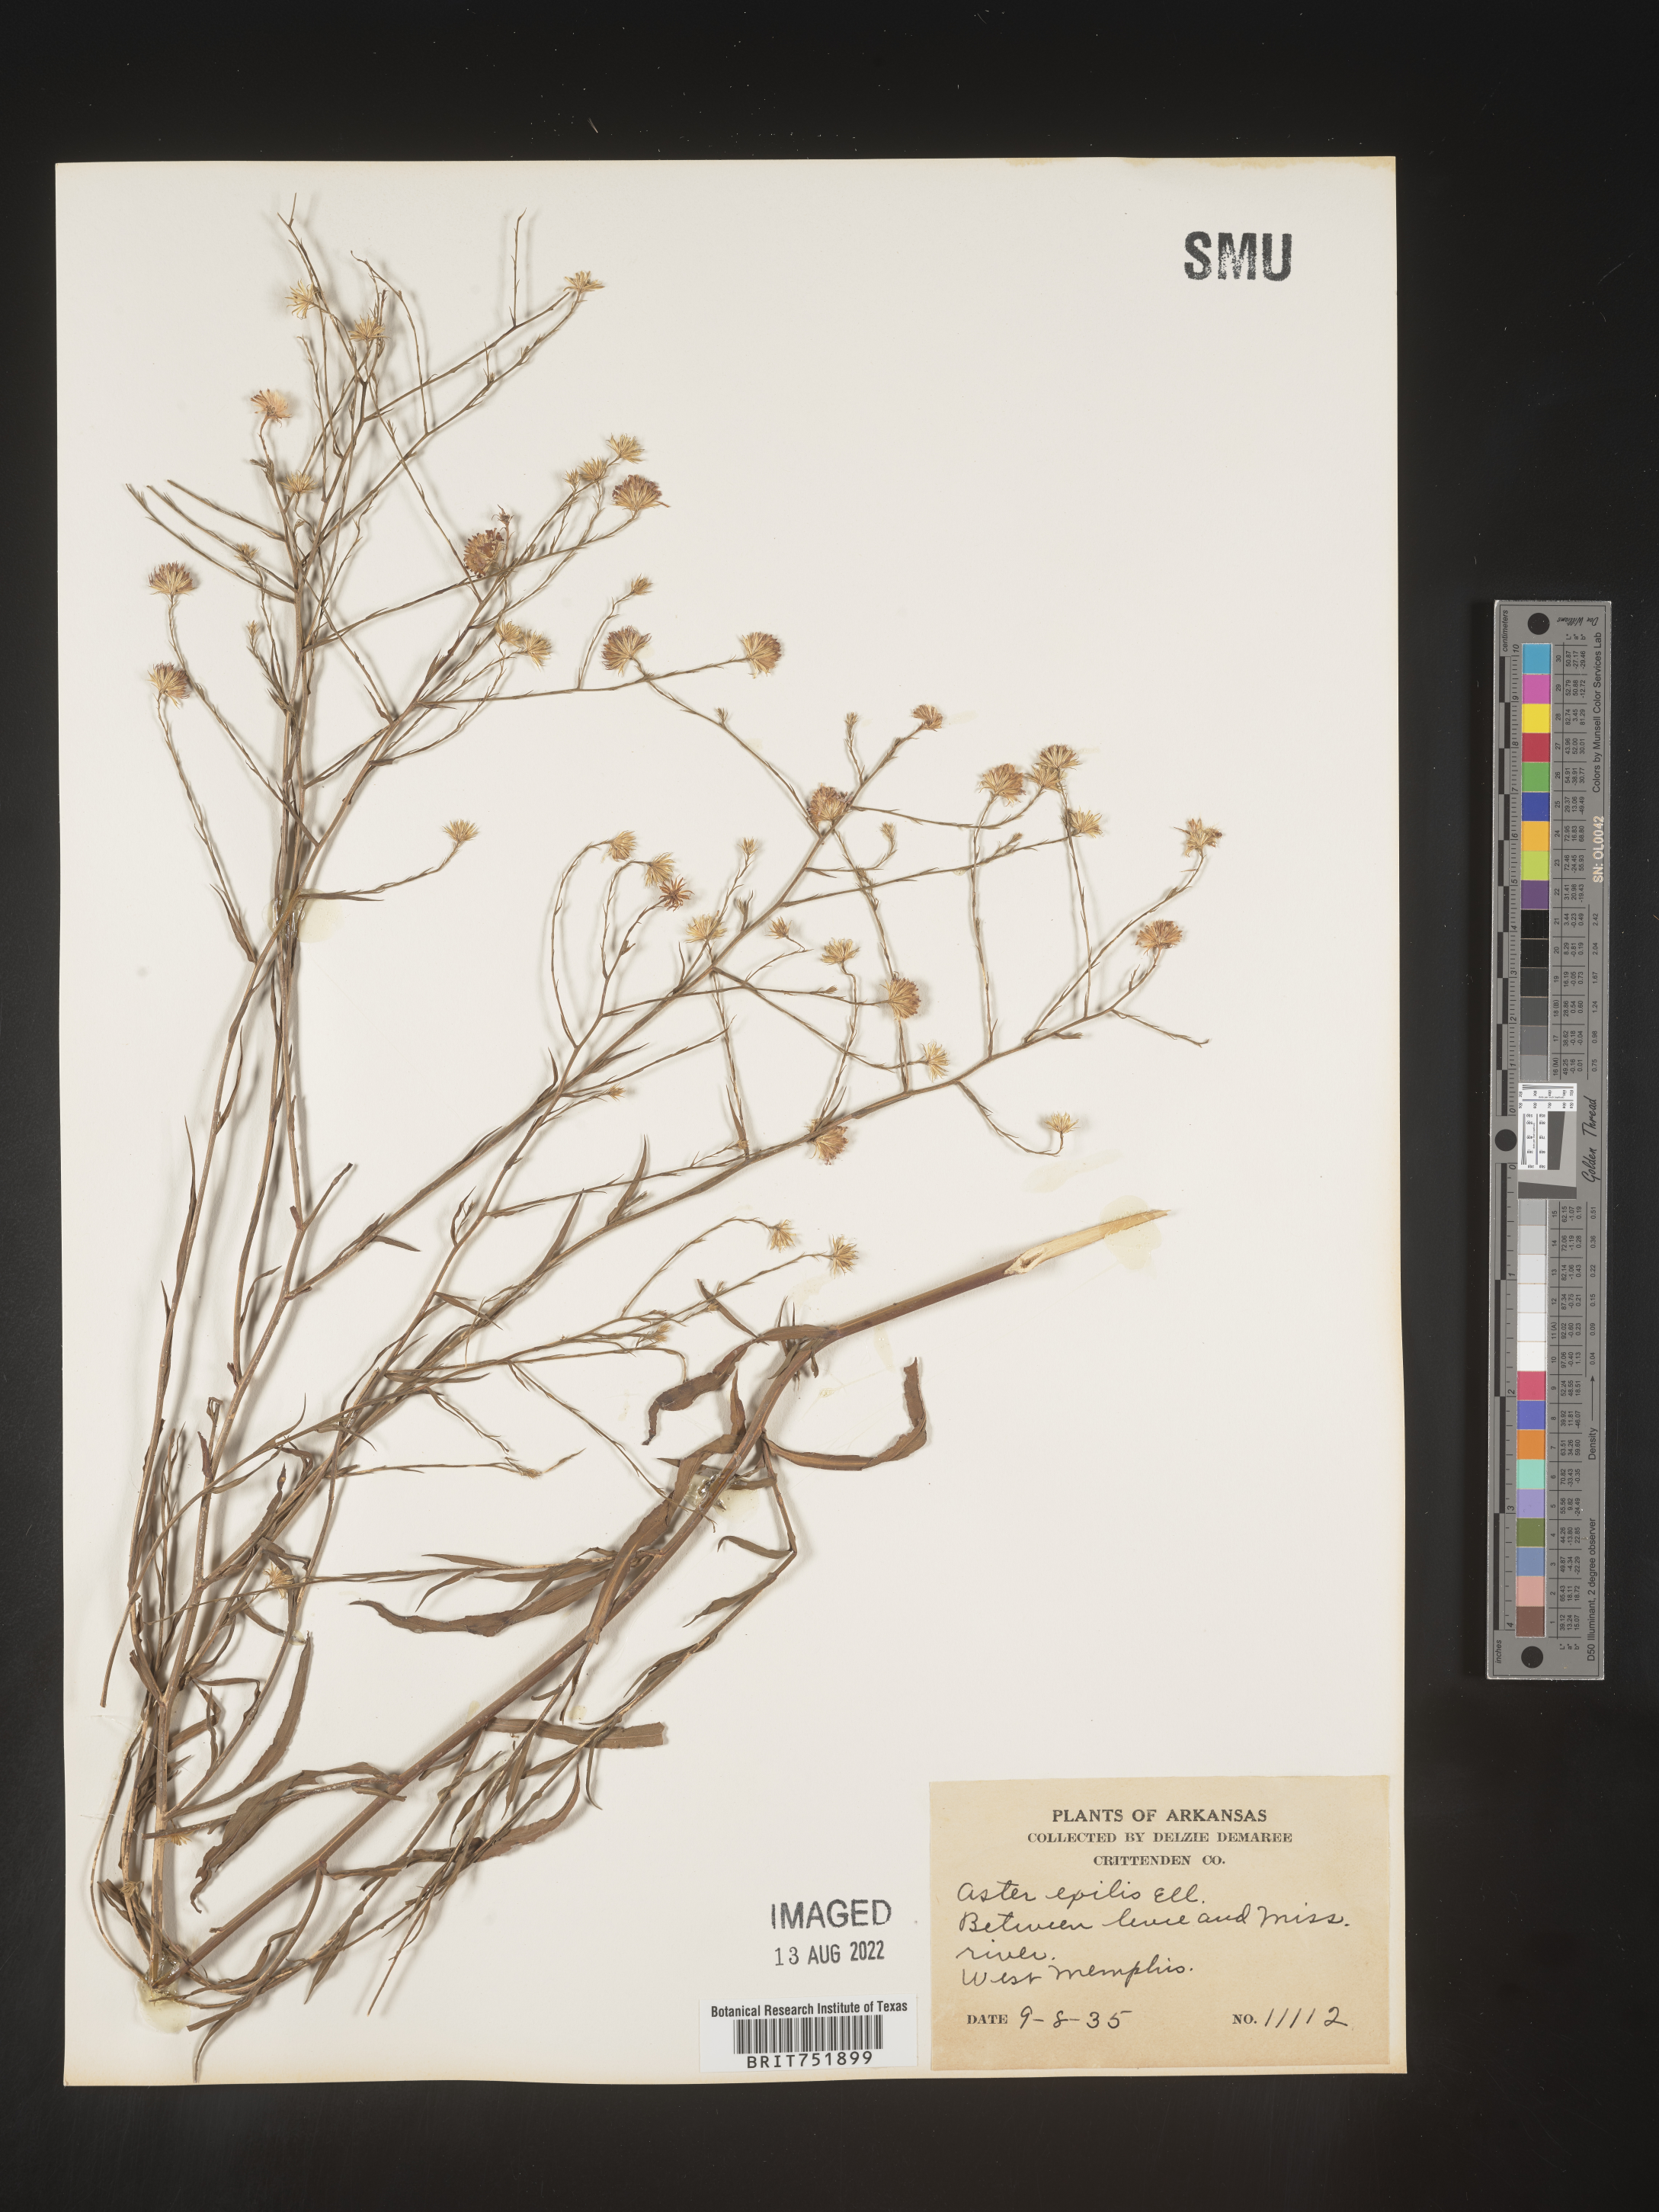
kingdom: Plantae
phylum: Tracheophyta
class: Magnoliopsida
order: Asterales
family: Asteraceae
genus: Symphyotrichum
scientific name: Symphyotrichum divaricatum
